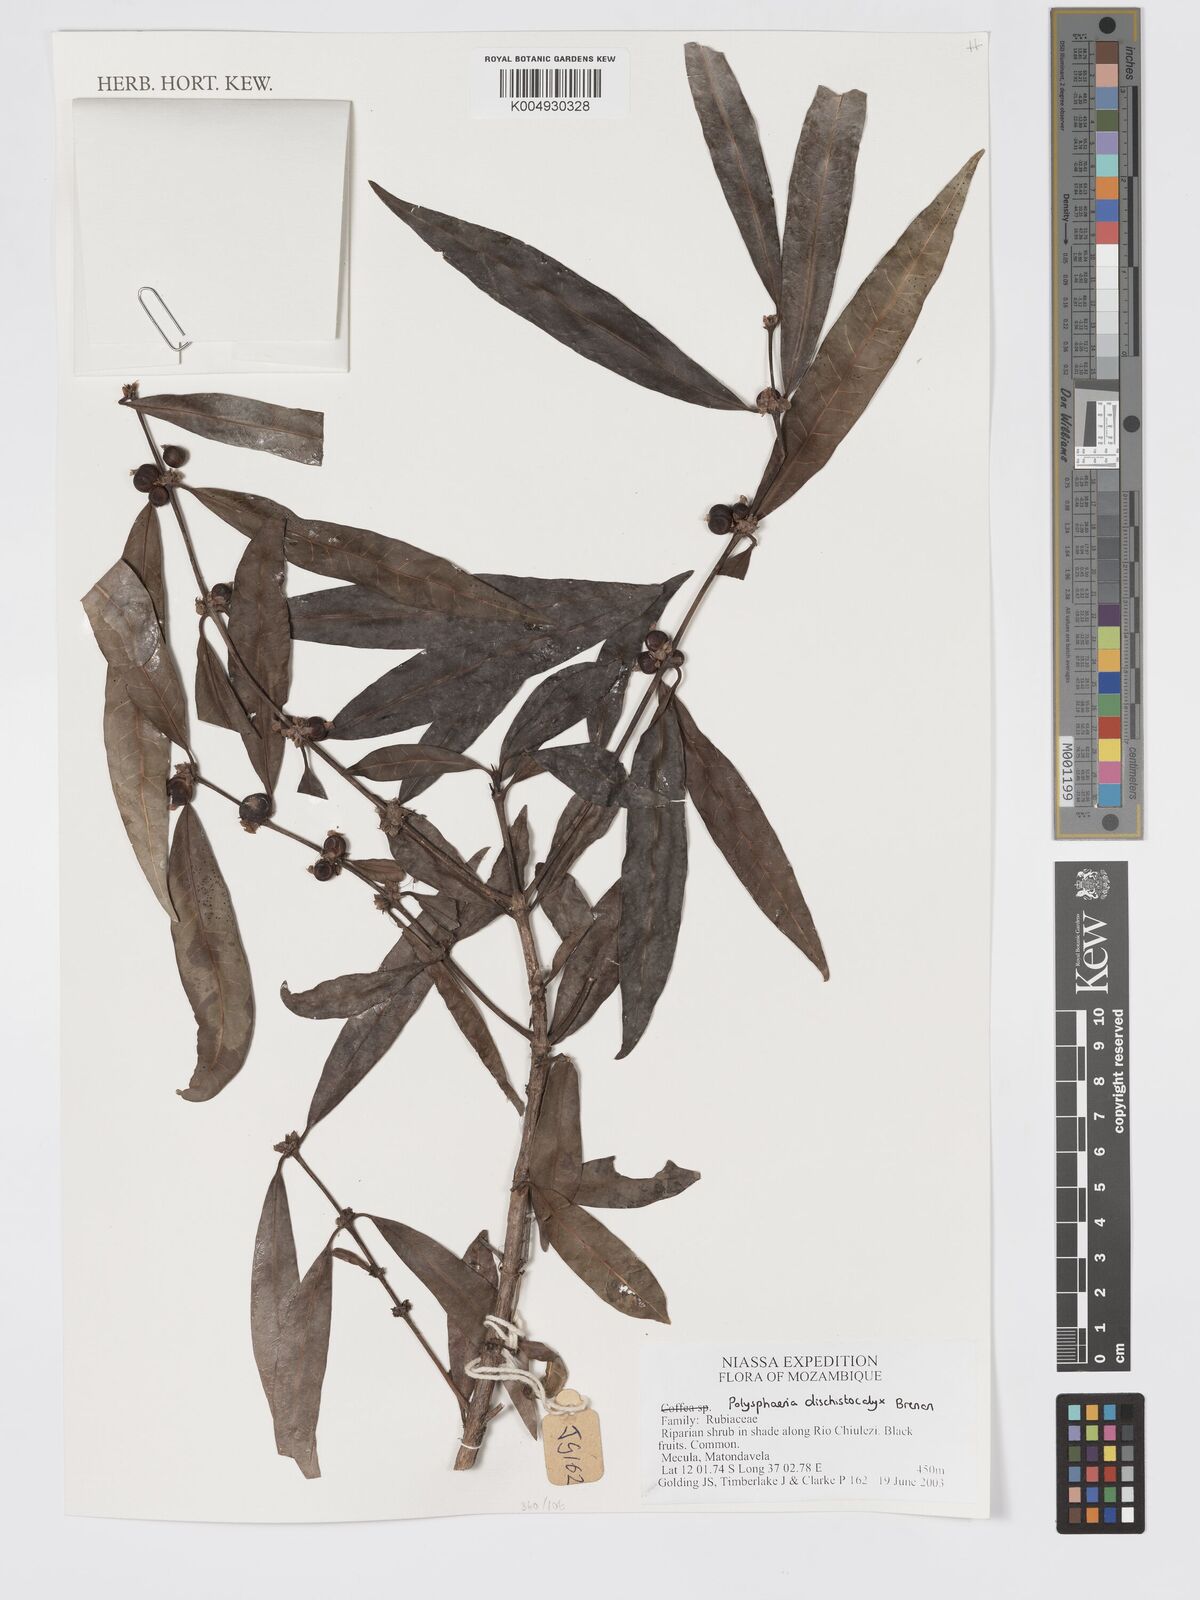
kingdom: Plantae
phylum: Tracheophyta
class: Magnoliopsida
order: Gentianales
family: Rubiaceae
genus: Polysphaeria
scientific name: Polysphaeria dischistocalyx
